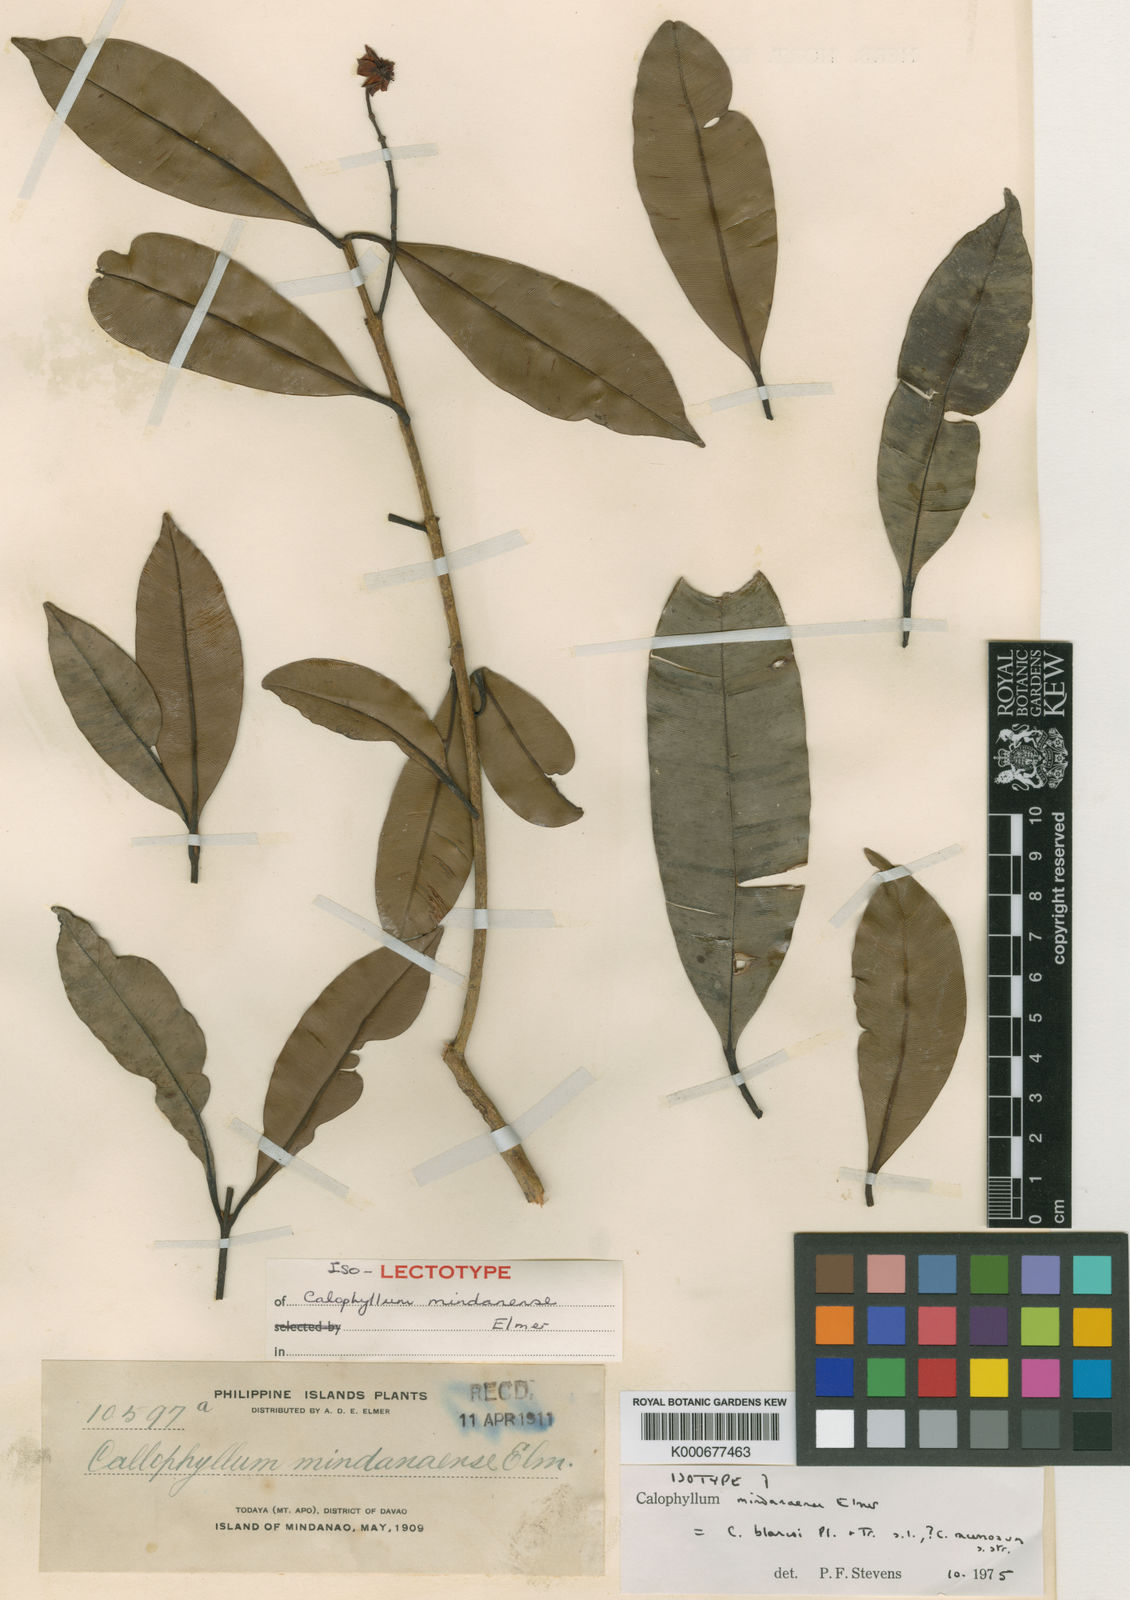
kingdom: Plantae
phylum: Tracheophyta
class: Magnoliopsida
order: Malpighiales
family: Calophyllaceae
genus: Calophyllum
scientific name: Calophyllum blancoi
